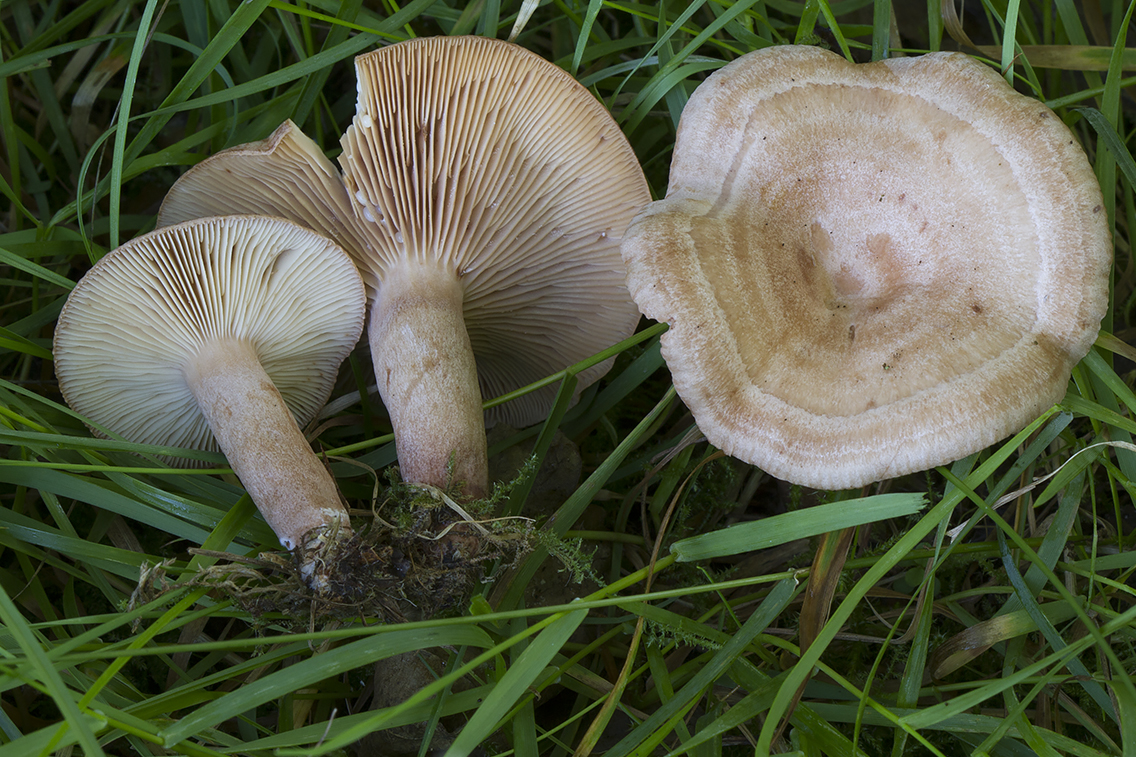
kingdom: Fungi
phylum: Basidiomycota
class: Agaricomycetes
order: Russulales
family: Russulaceae
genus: Lactarius
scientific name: Lactarius quietus
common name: ege-mælkehat
